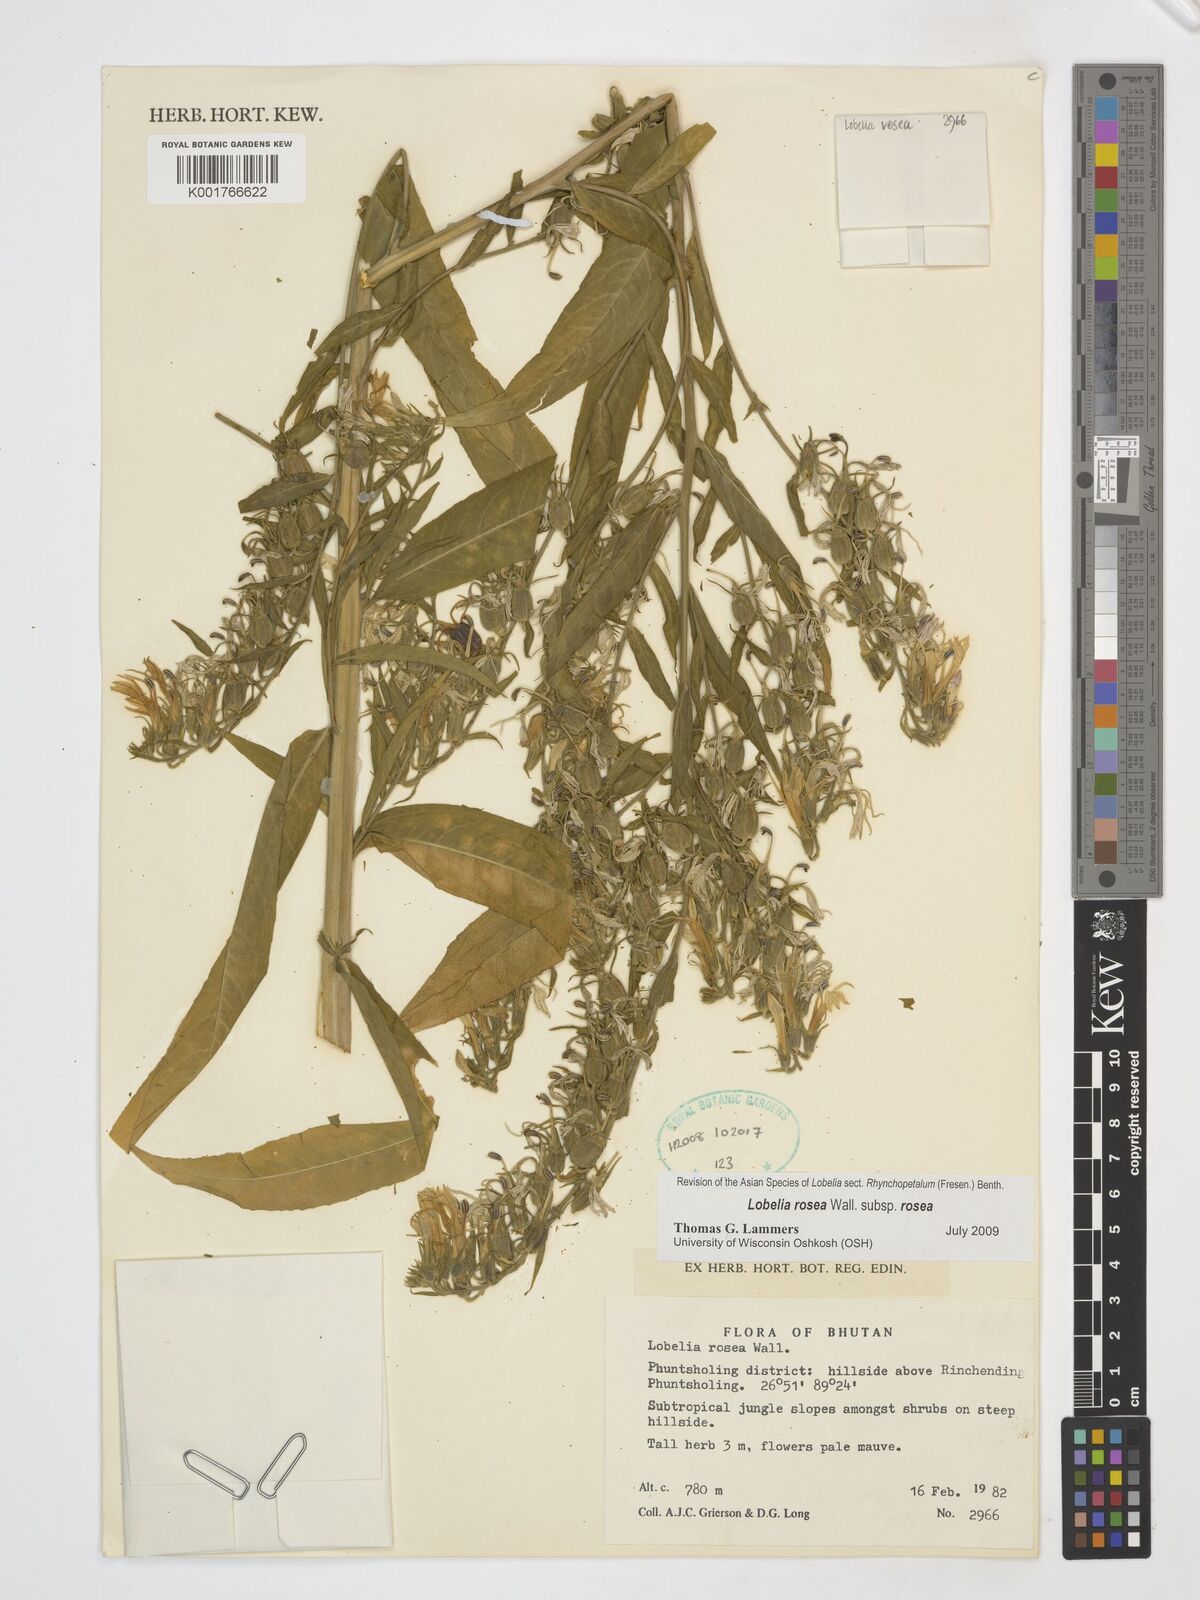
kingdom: Plantae
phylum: Tracheophyta
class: Magnoliopsida
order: Asterales
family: Campanulaceae
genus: Lobelia
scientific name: Lobelia rosea
